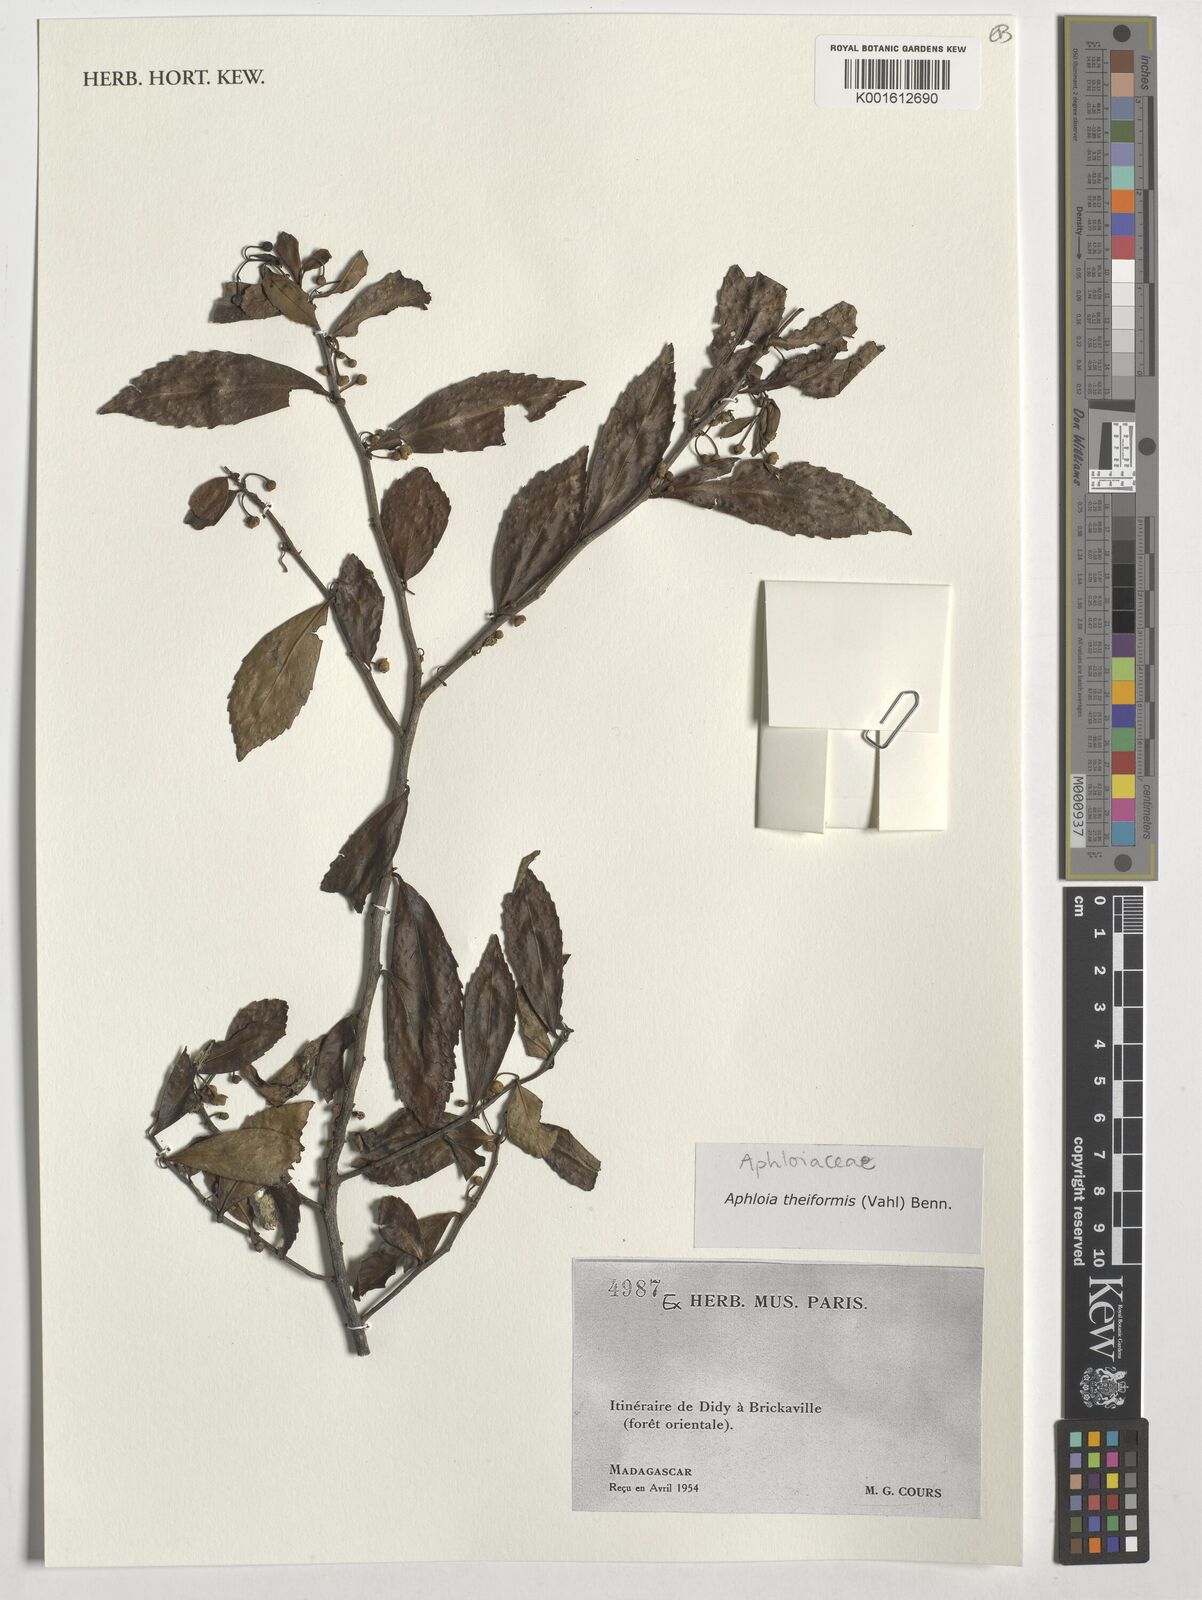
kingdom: Plantae
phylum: Tracheophyta
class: Magnoliopsida
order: Crossosomatales
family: Aphloiaceae
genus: Aphloia
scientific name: Aphloia theiformis
